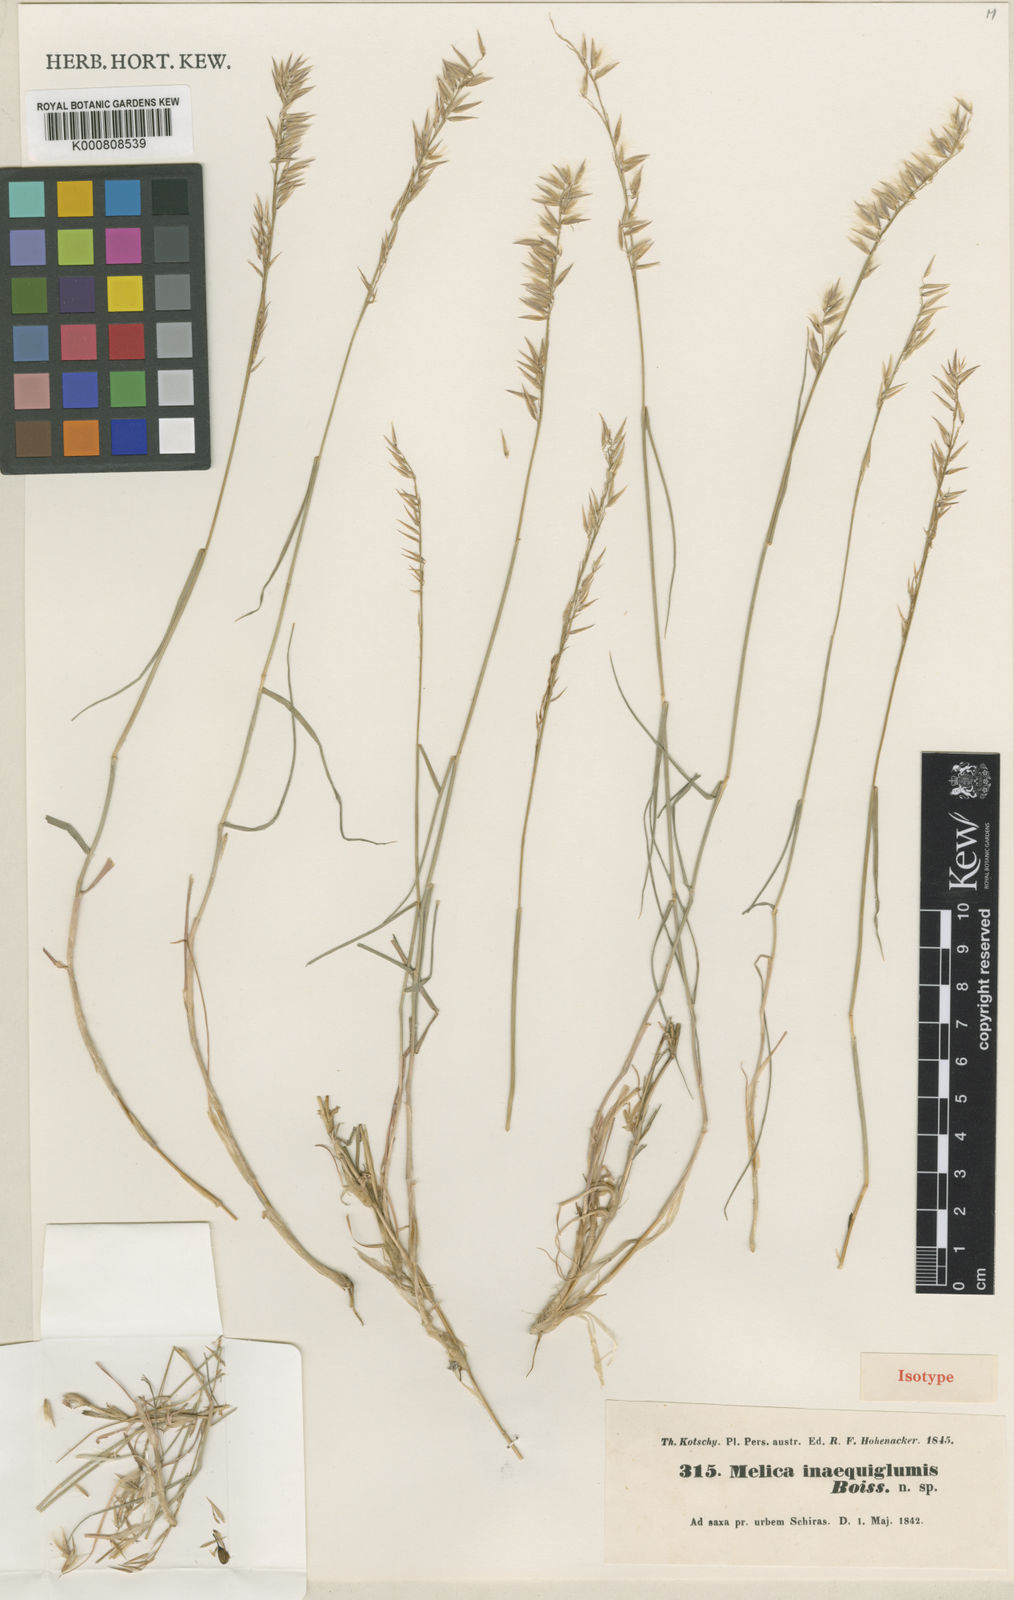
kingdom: Plantae
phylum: Tracheophyta
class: Liliopsida
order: Poales
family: Poaceae
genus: Melica
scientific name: Melica persica
